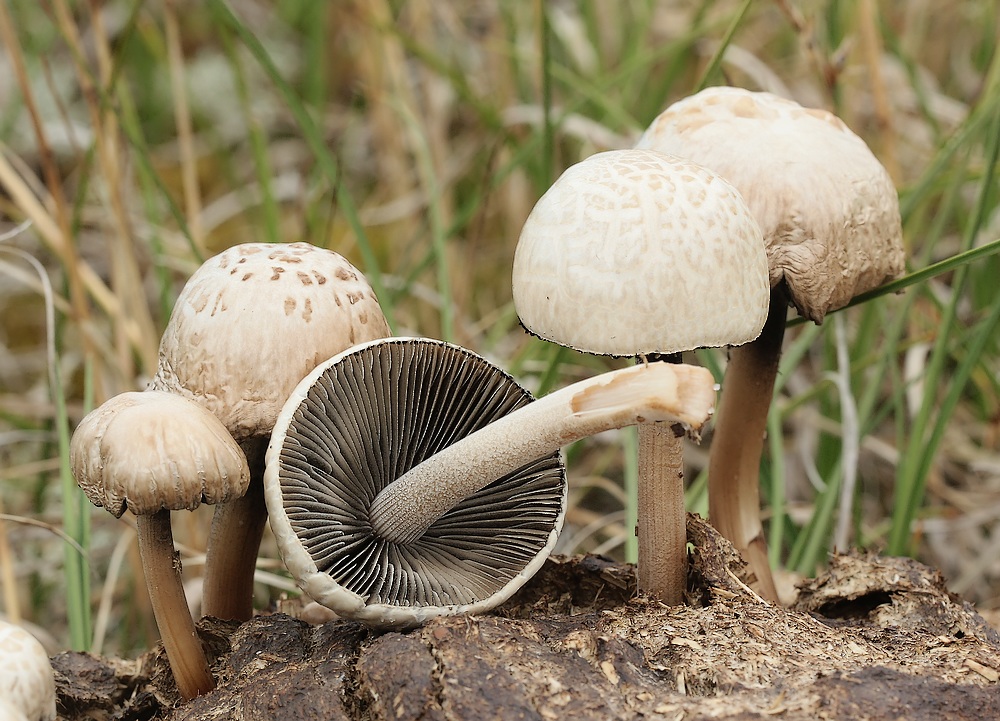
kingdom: Fungi
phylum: Basidiomycota
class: Agaricomycetes
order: Agaricales
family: Bolbitiaceae
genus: Panaeolus
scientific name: Panaeolus
